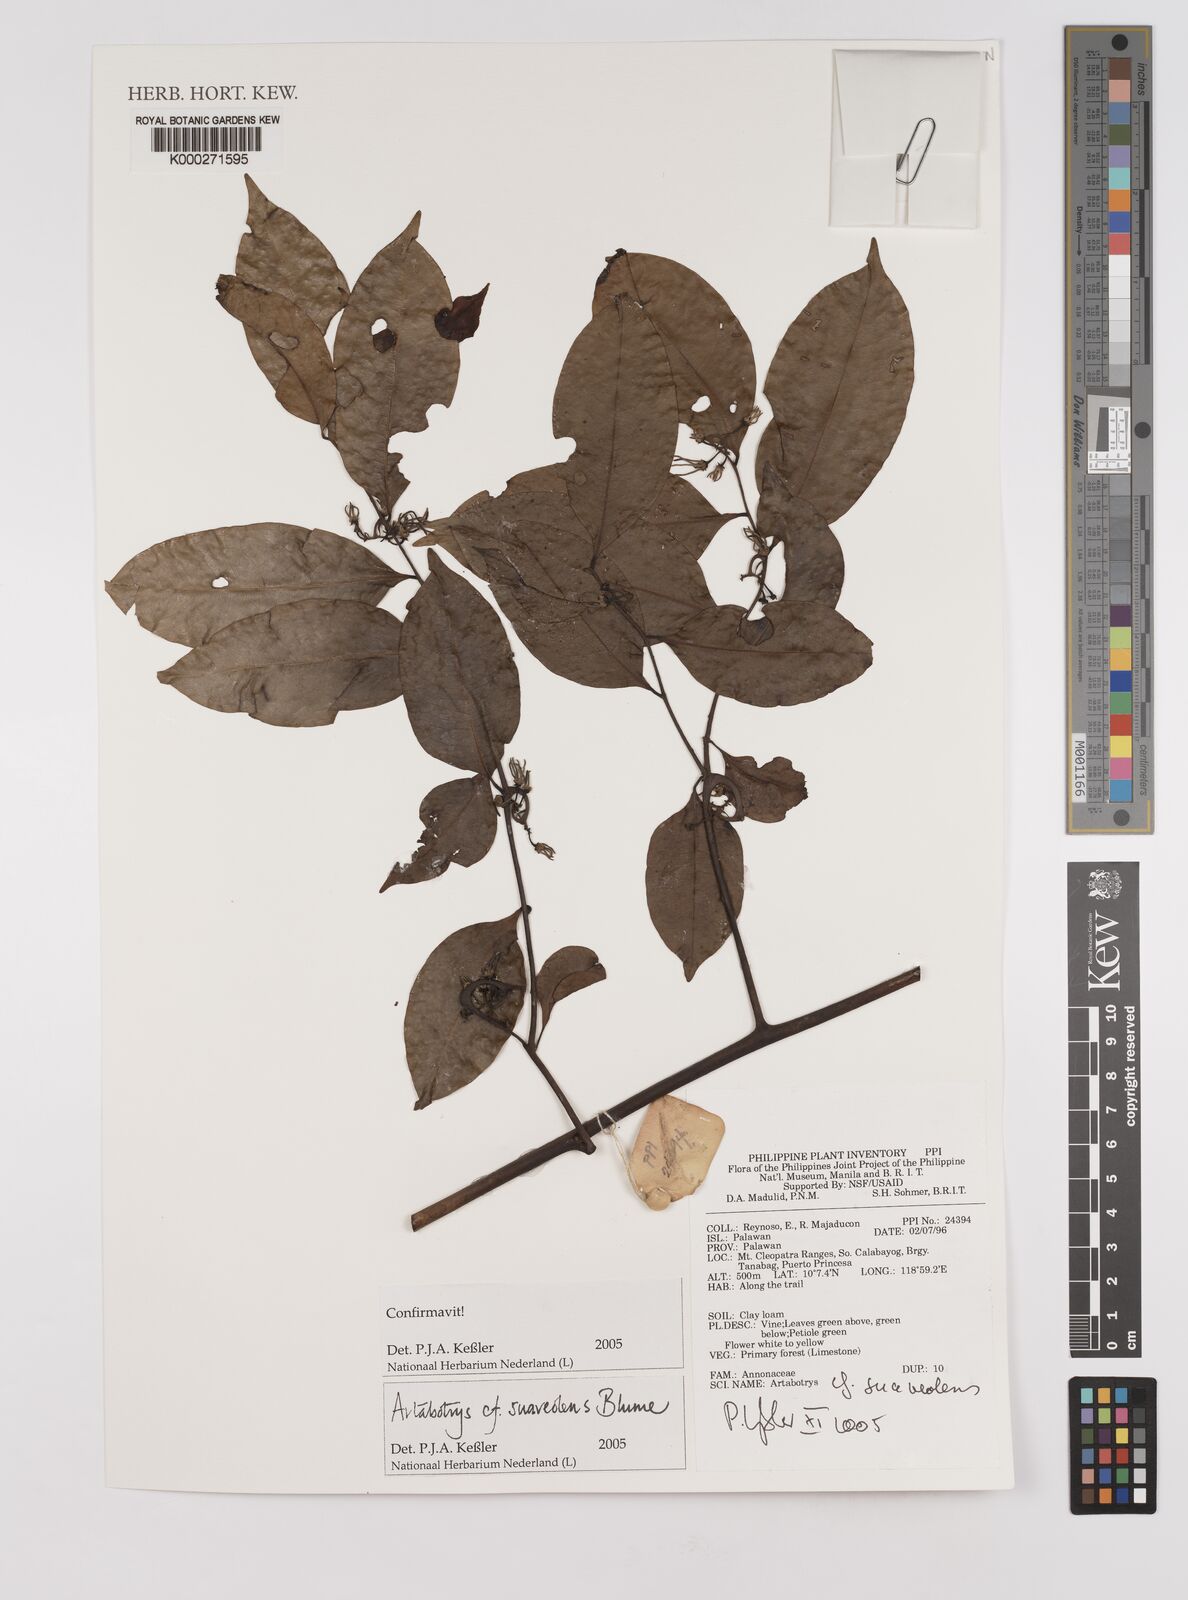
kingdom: Plantae
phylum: Tracheophyta
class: Magnoliopsida
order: Magnoliales
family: Annonaceae
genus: Artabotrys
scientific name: Artabotrys suaveolens
